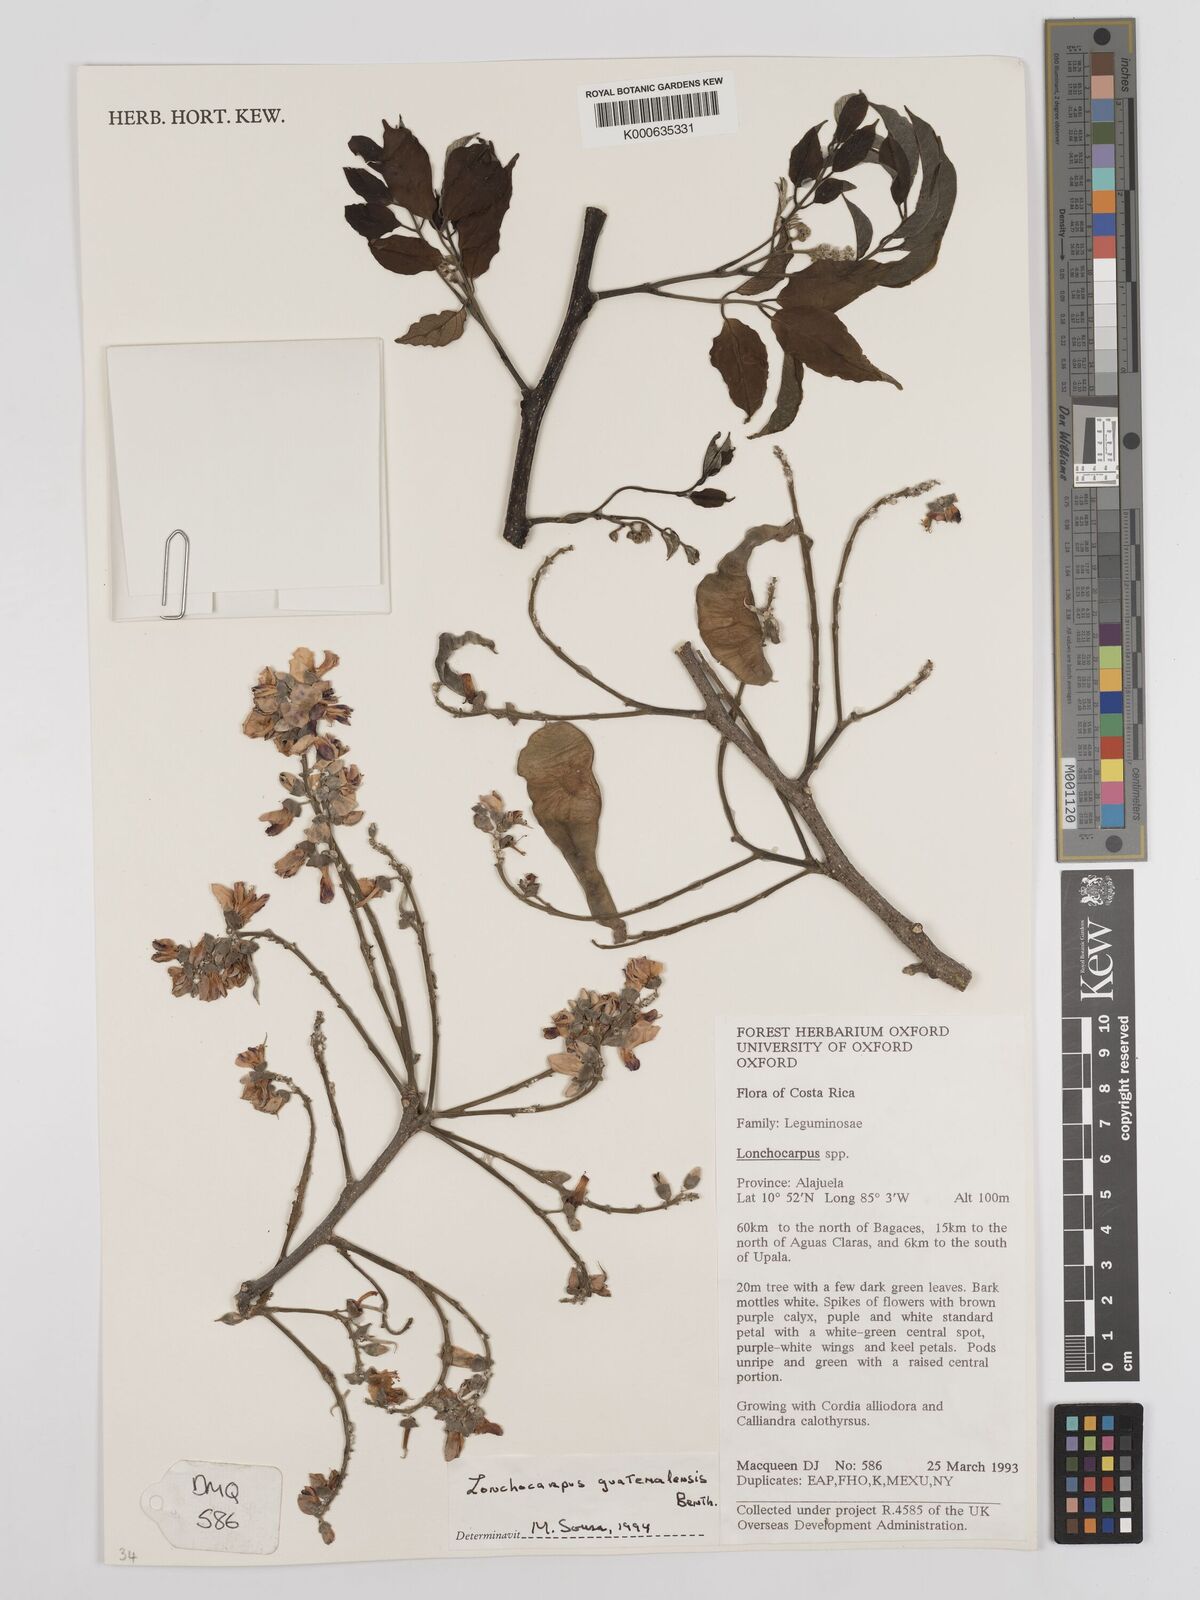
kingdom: Plantae
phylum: Tracheophyta
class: Magnoliopsida
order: Fabales
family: Fabaceae
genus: Lonchocarpus
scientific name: Lonchocarpus guatemalensis
